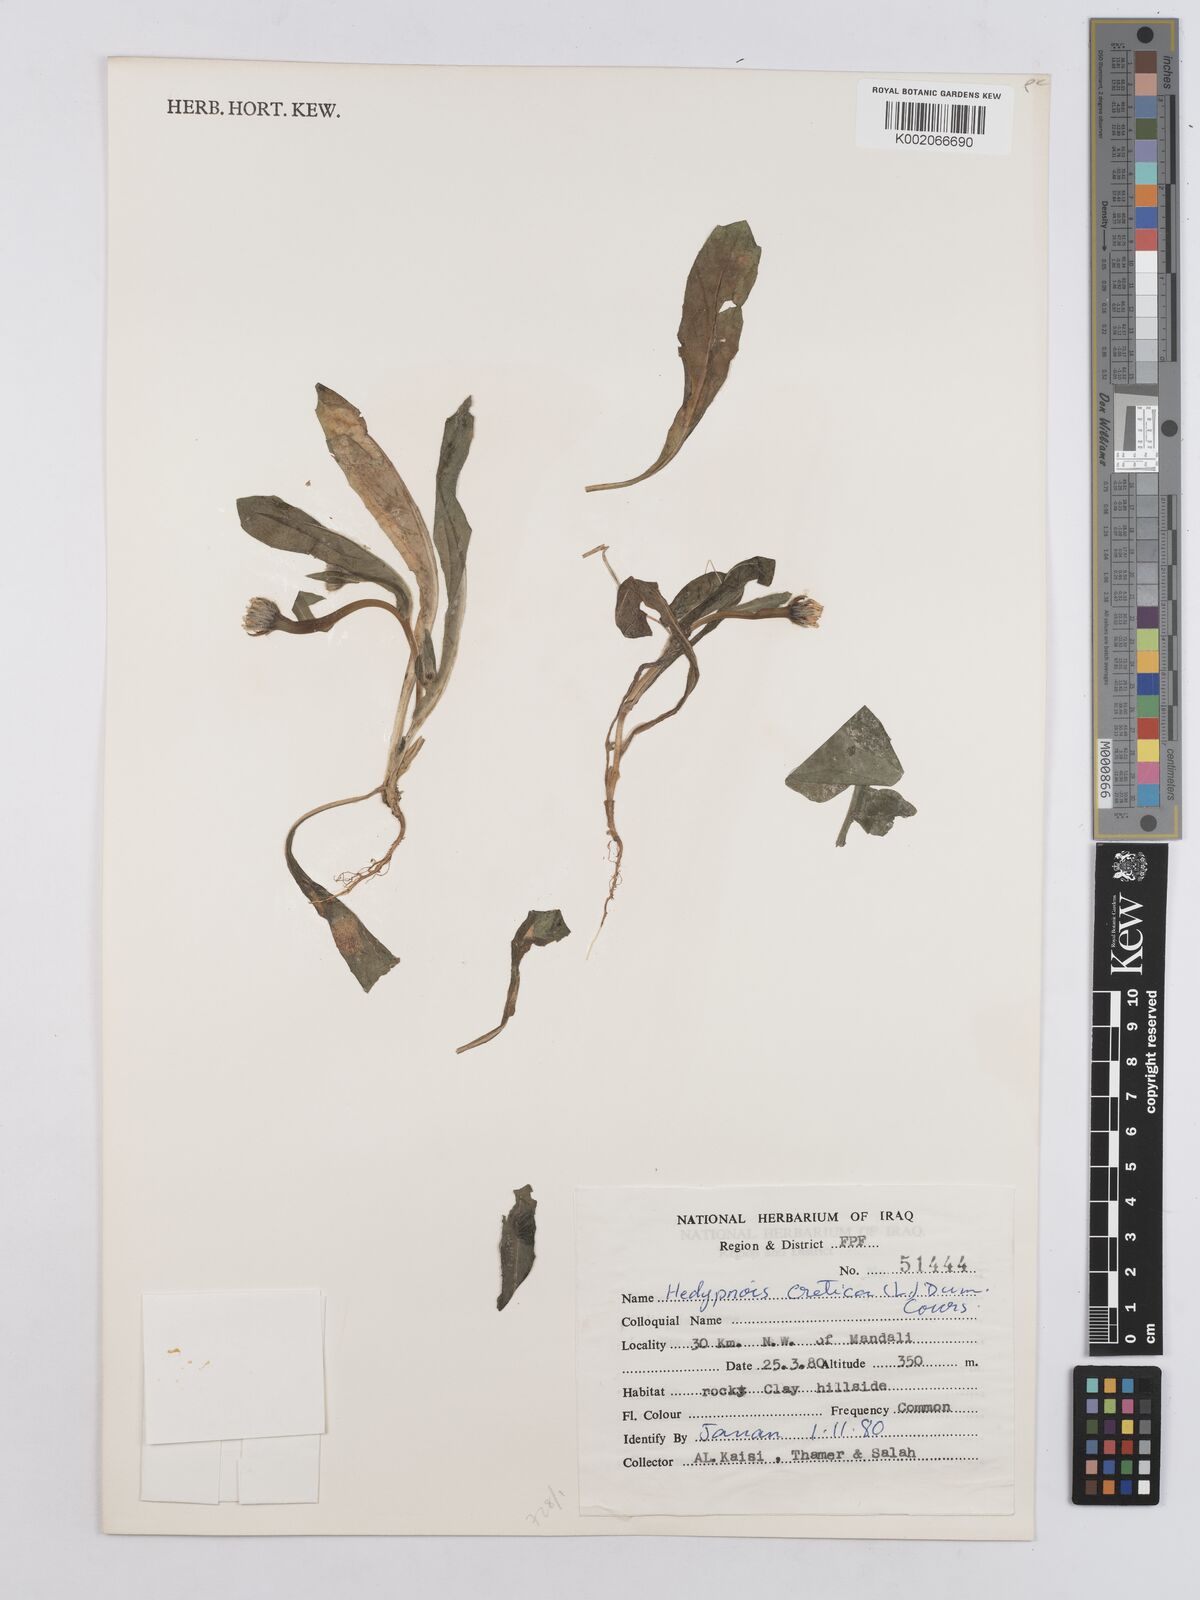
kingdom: Plantae
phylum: Tracheophyta
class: Magnoliopsida
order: Asterales
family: Asteraceae
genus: Hedypnois
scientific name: Hedypnois cretica
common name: Scaly hawkbit
